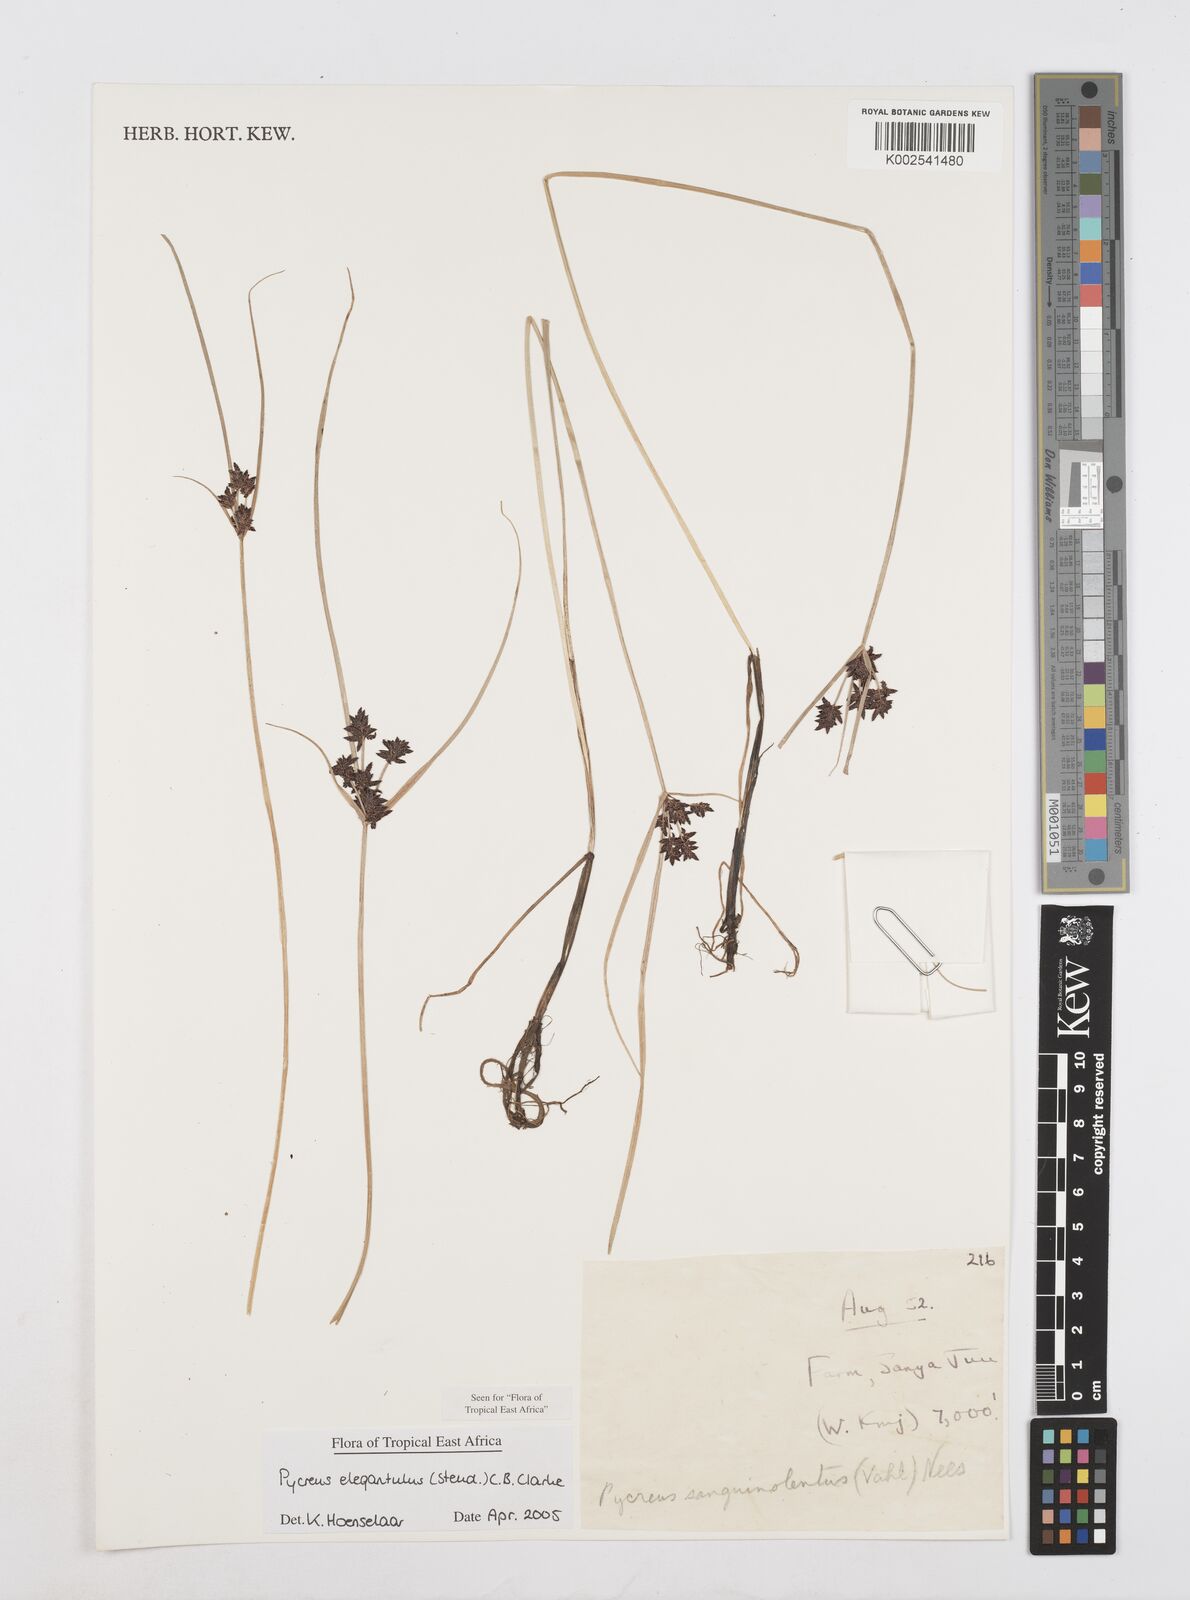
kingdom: Plantae
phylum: Tracheophyta
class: Liliopsida
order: Poales
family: Cyperaceae
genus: Cyperus
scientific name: Cyperus elegantulus
